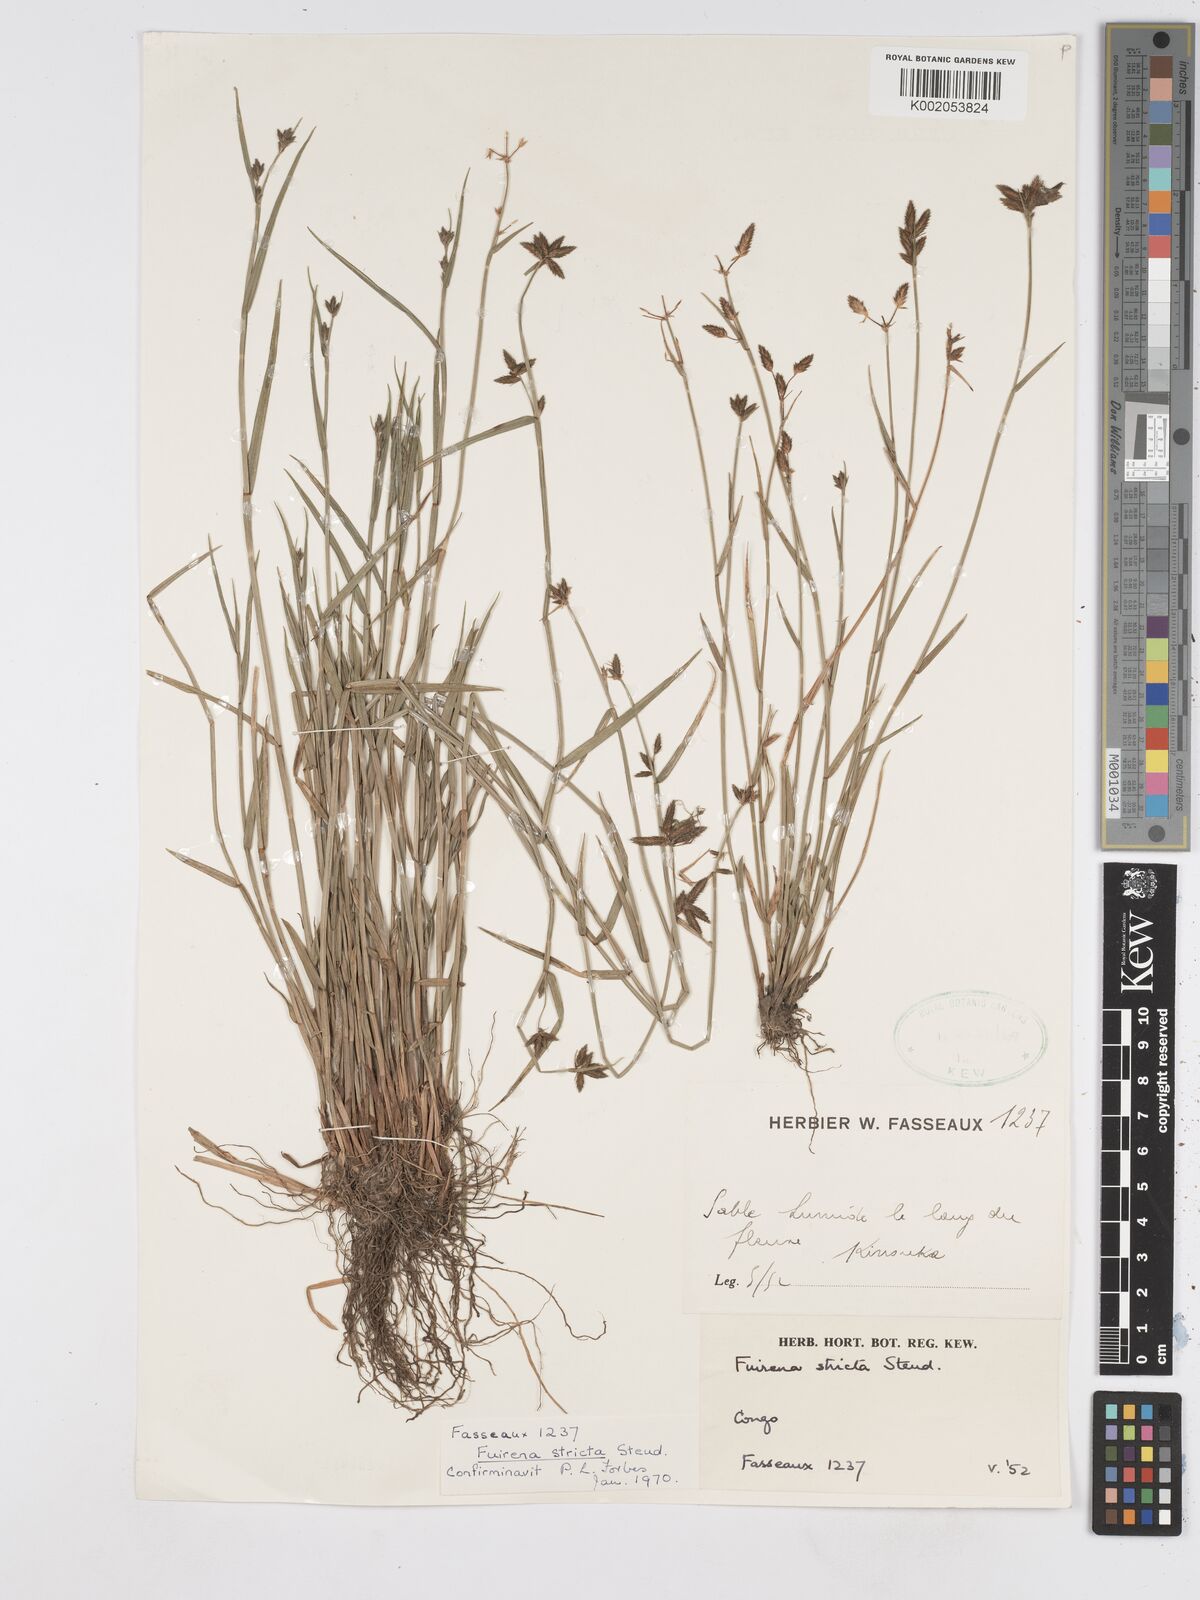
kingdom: Plantae
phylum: Tracheophyta
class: Liliopsida
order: Poales
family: Cyperaceae
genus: Fuirena
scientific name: Fuirena stricta
